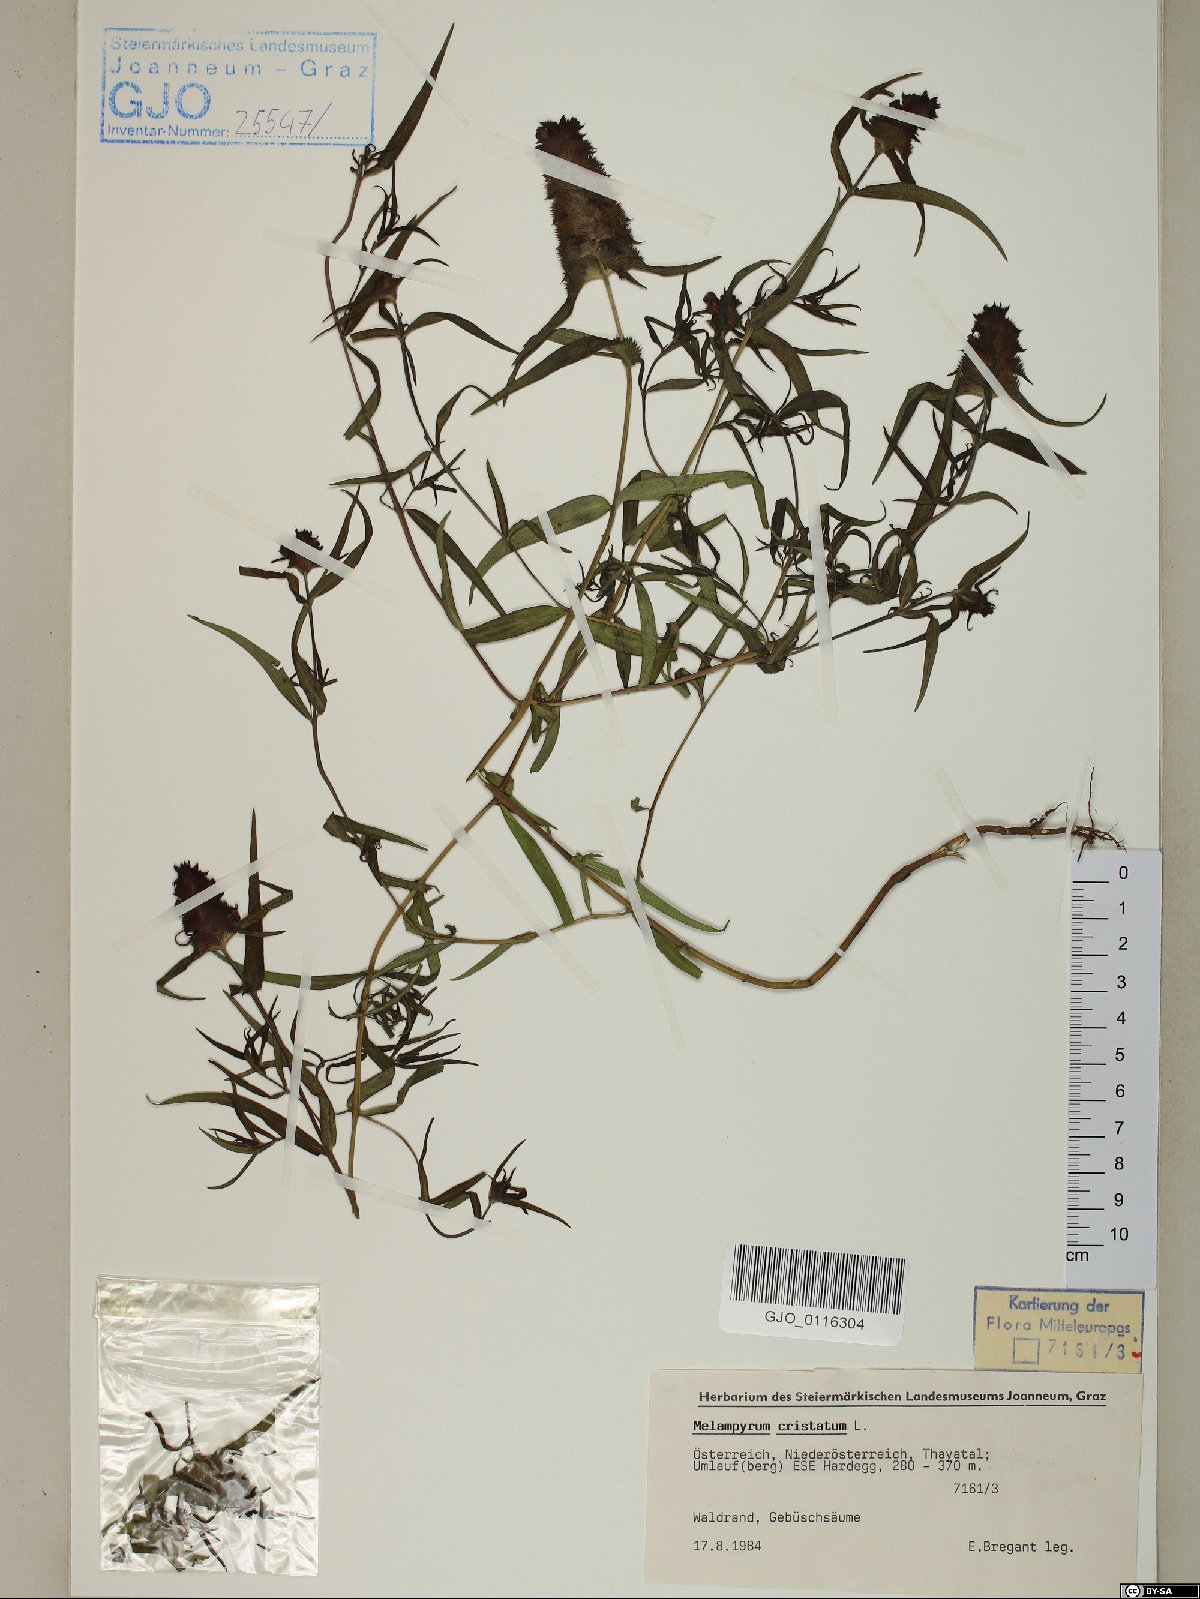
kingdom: Plantae
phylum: Tracheophyta
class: Magnoliopsida
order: Lamiales
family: Orobanchaceae
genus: Melampyrum
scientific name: Melampyrum cristatum
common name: Crested cow-wheat
